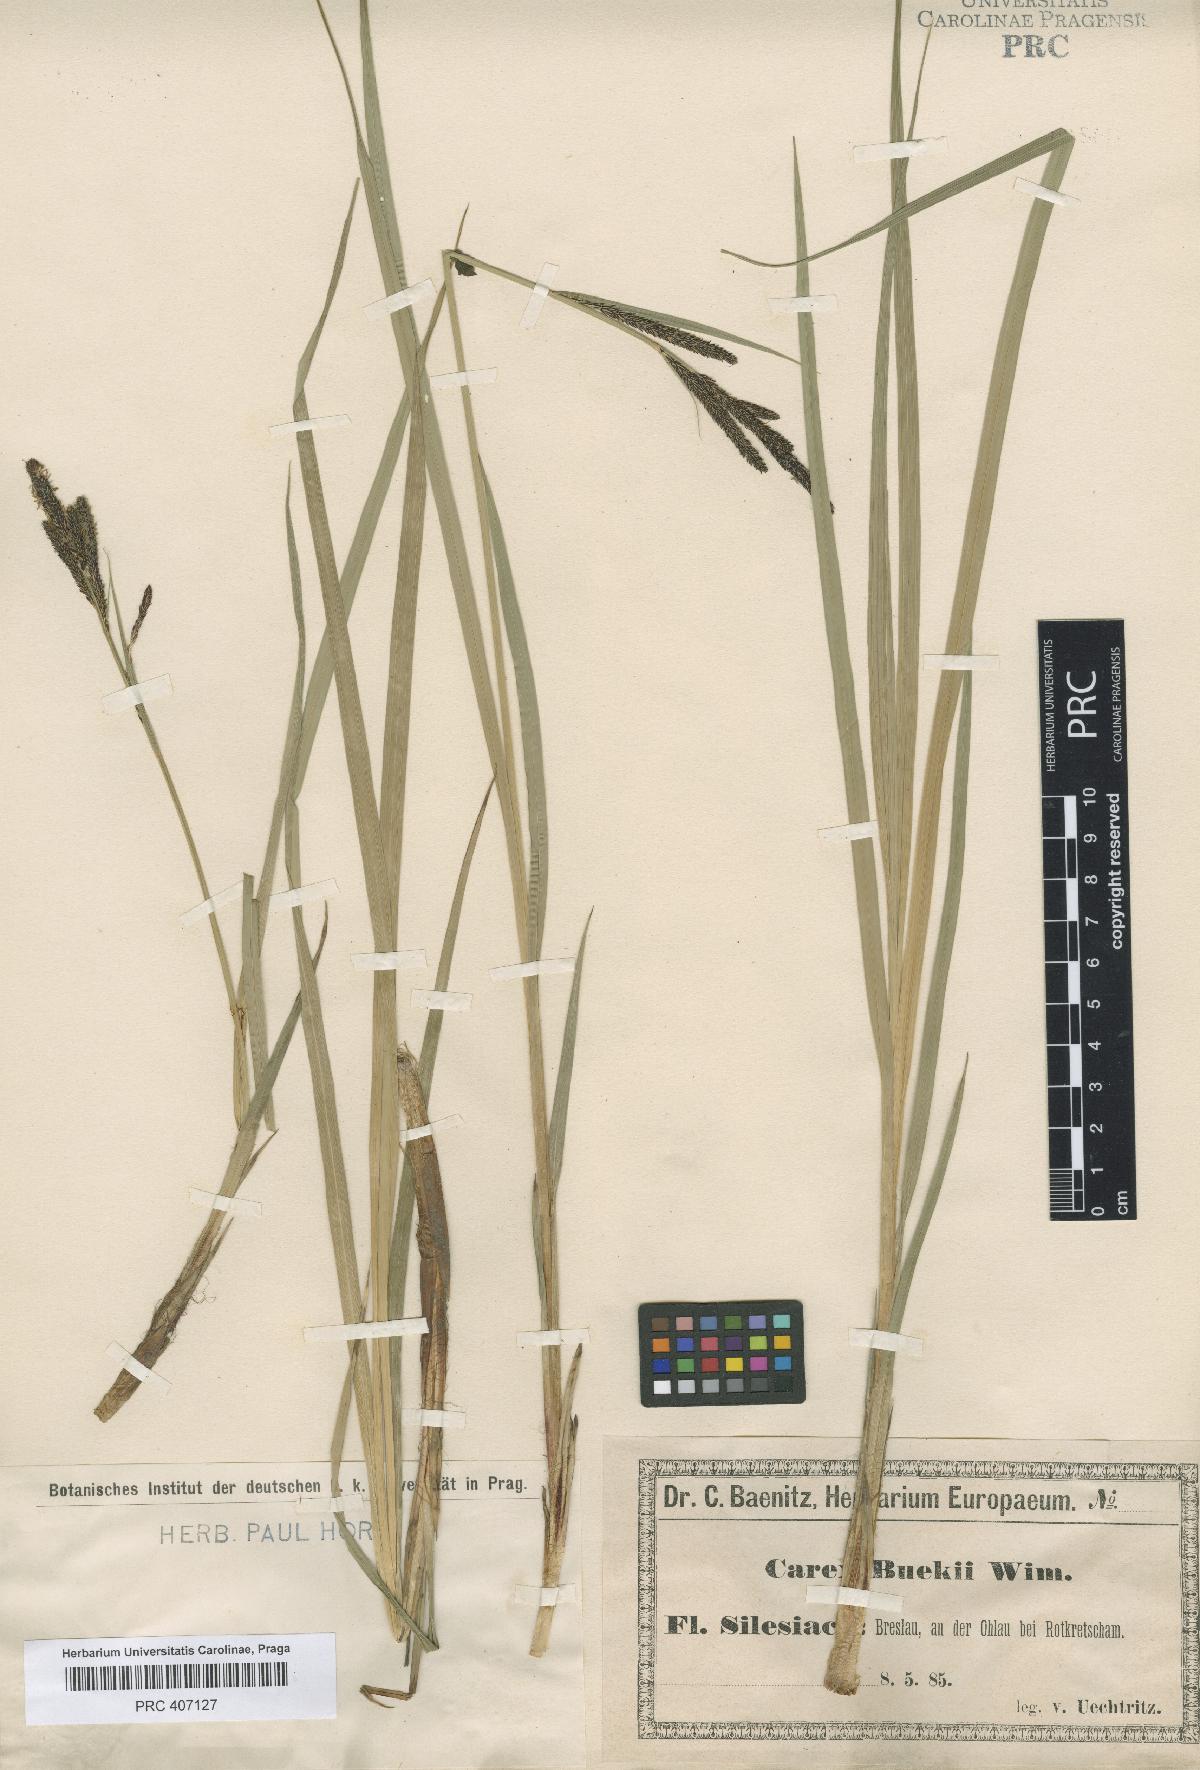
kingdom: Plantae
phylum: Tracheophyta
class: Liliopsida
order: Poales
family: Cyperaceae
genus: Carex
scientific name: Carex buekii
